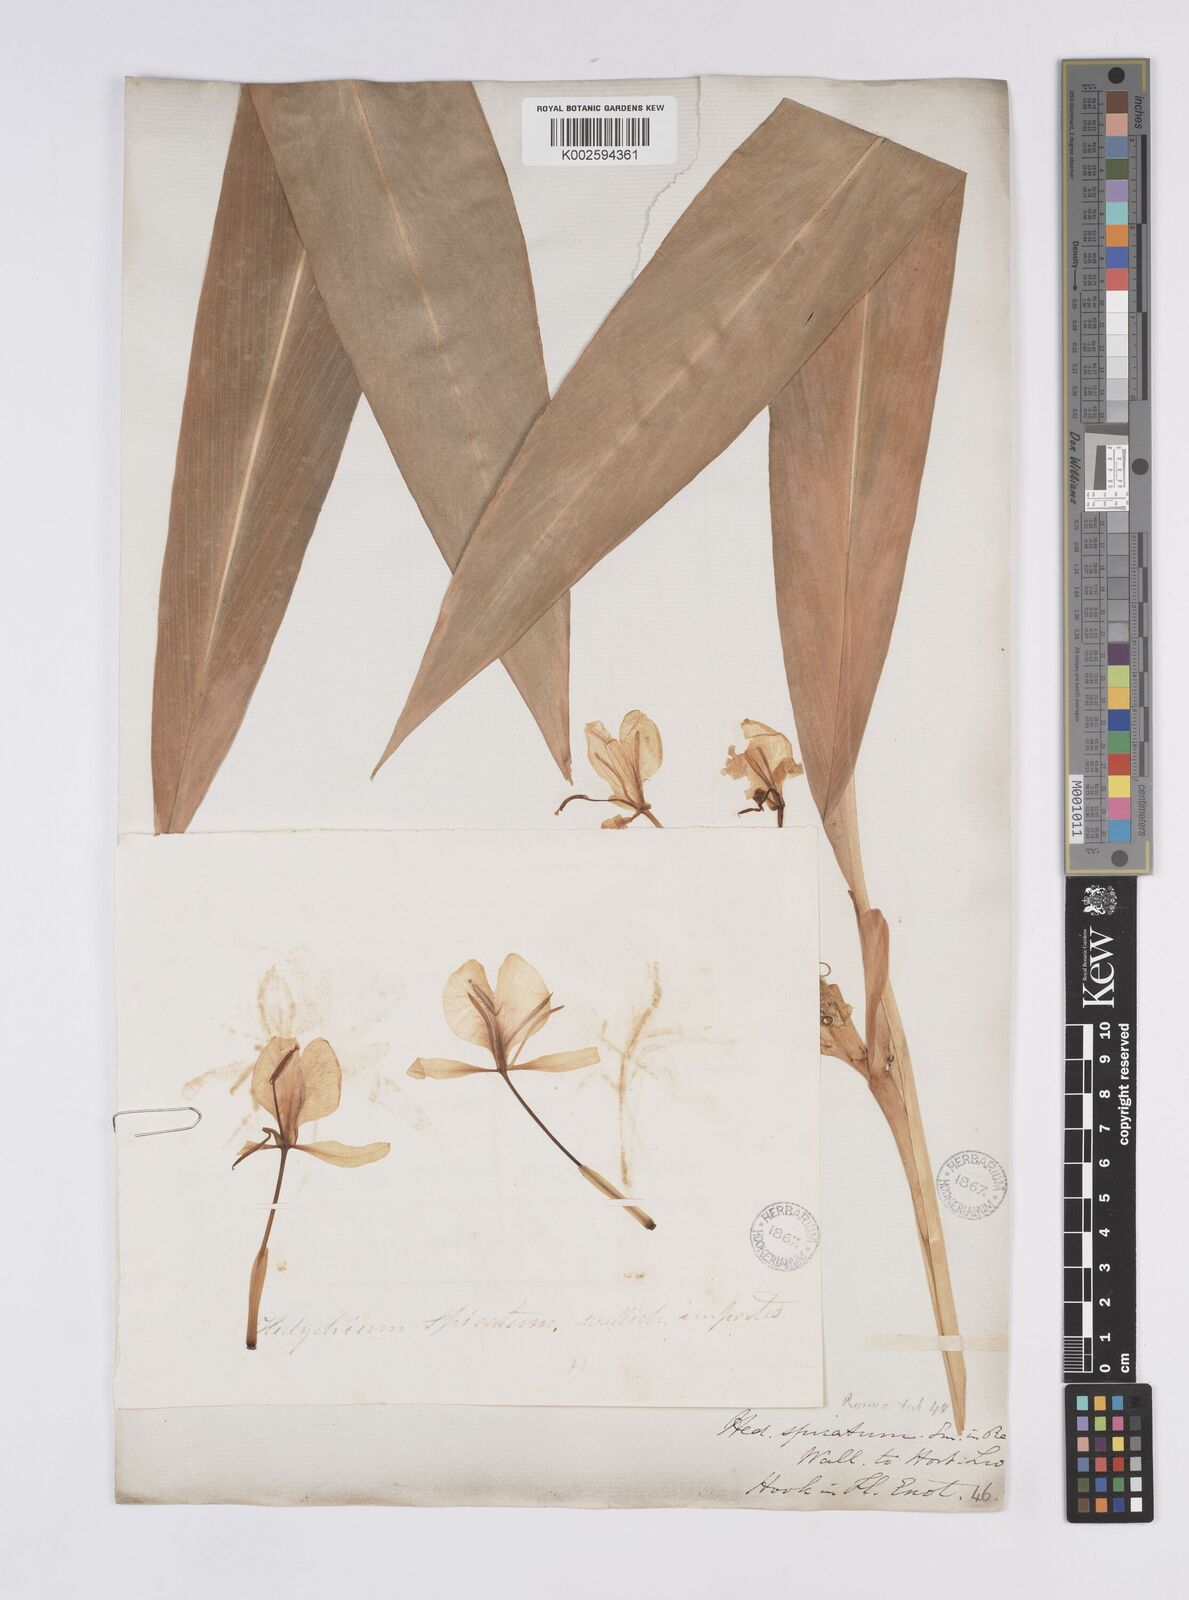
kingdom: Plantae
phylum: Tracheophyta
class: Liliopsida
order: Zingiberales
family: Zingiberaceae
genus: Hedychium
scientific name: Hedychium spicatum
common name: Spiked ginger-lily
